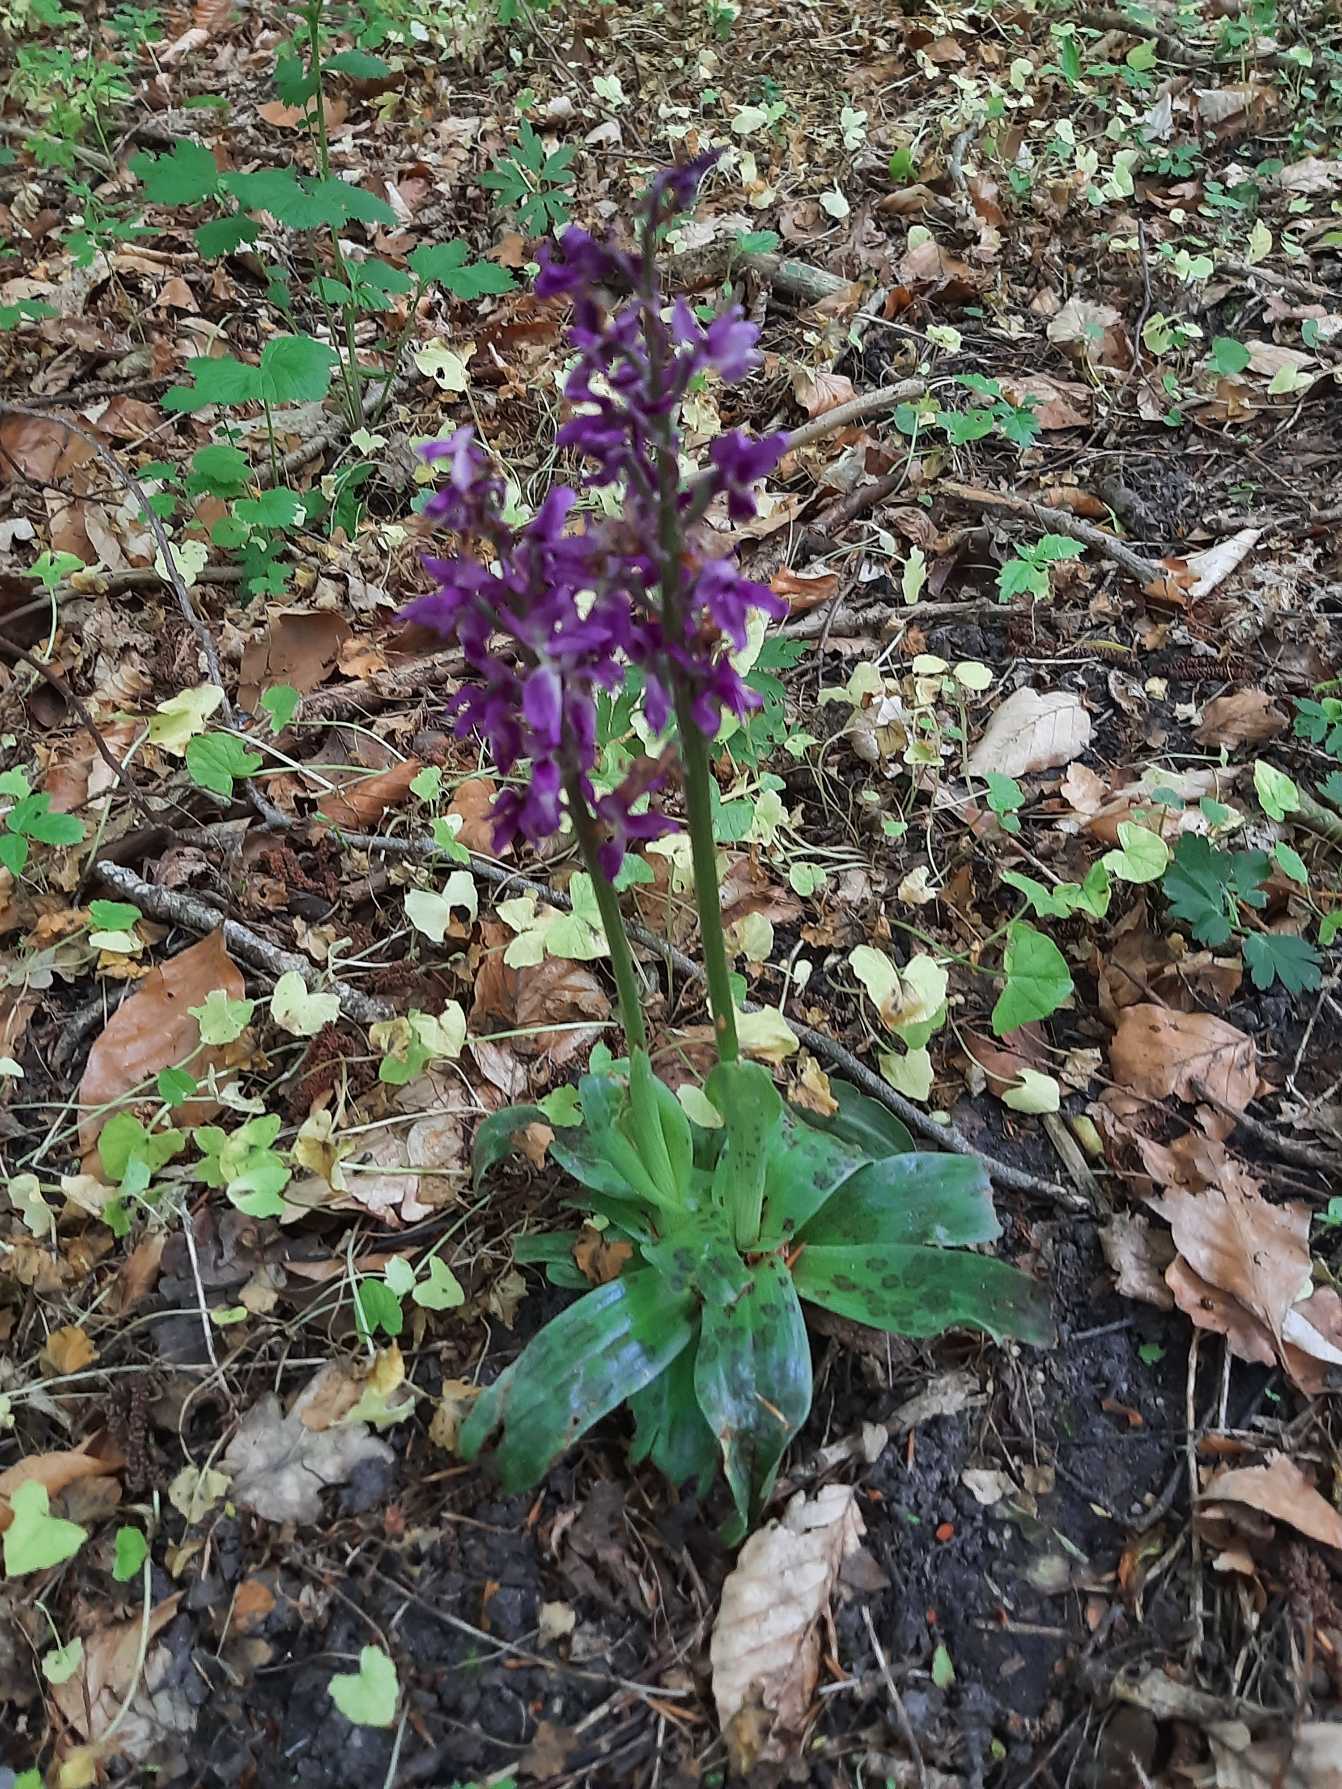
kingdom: Plantae
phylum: Tracheophyta
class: Liliopsida
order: Asparagales
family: Orchidaceae
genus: Orchis
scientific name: Orchis mascula
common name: Tyndakset gøgeurt
